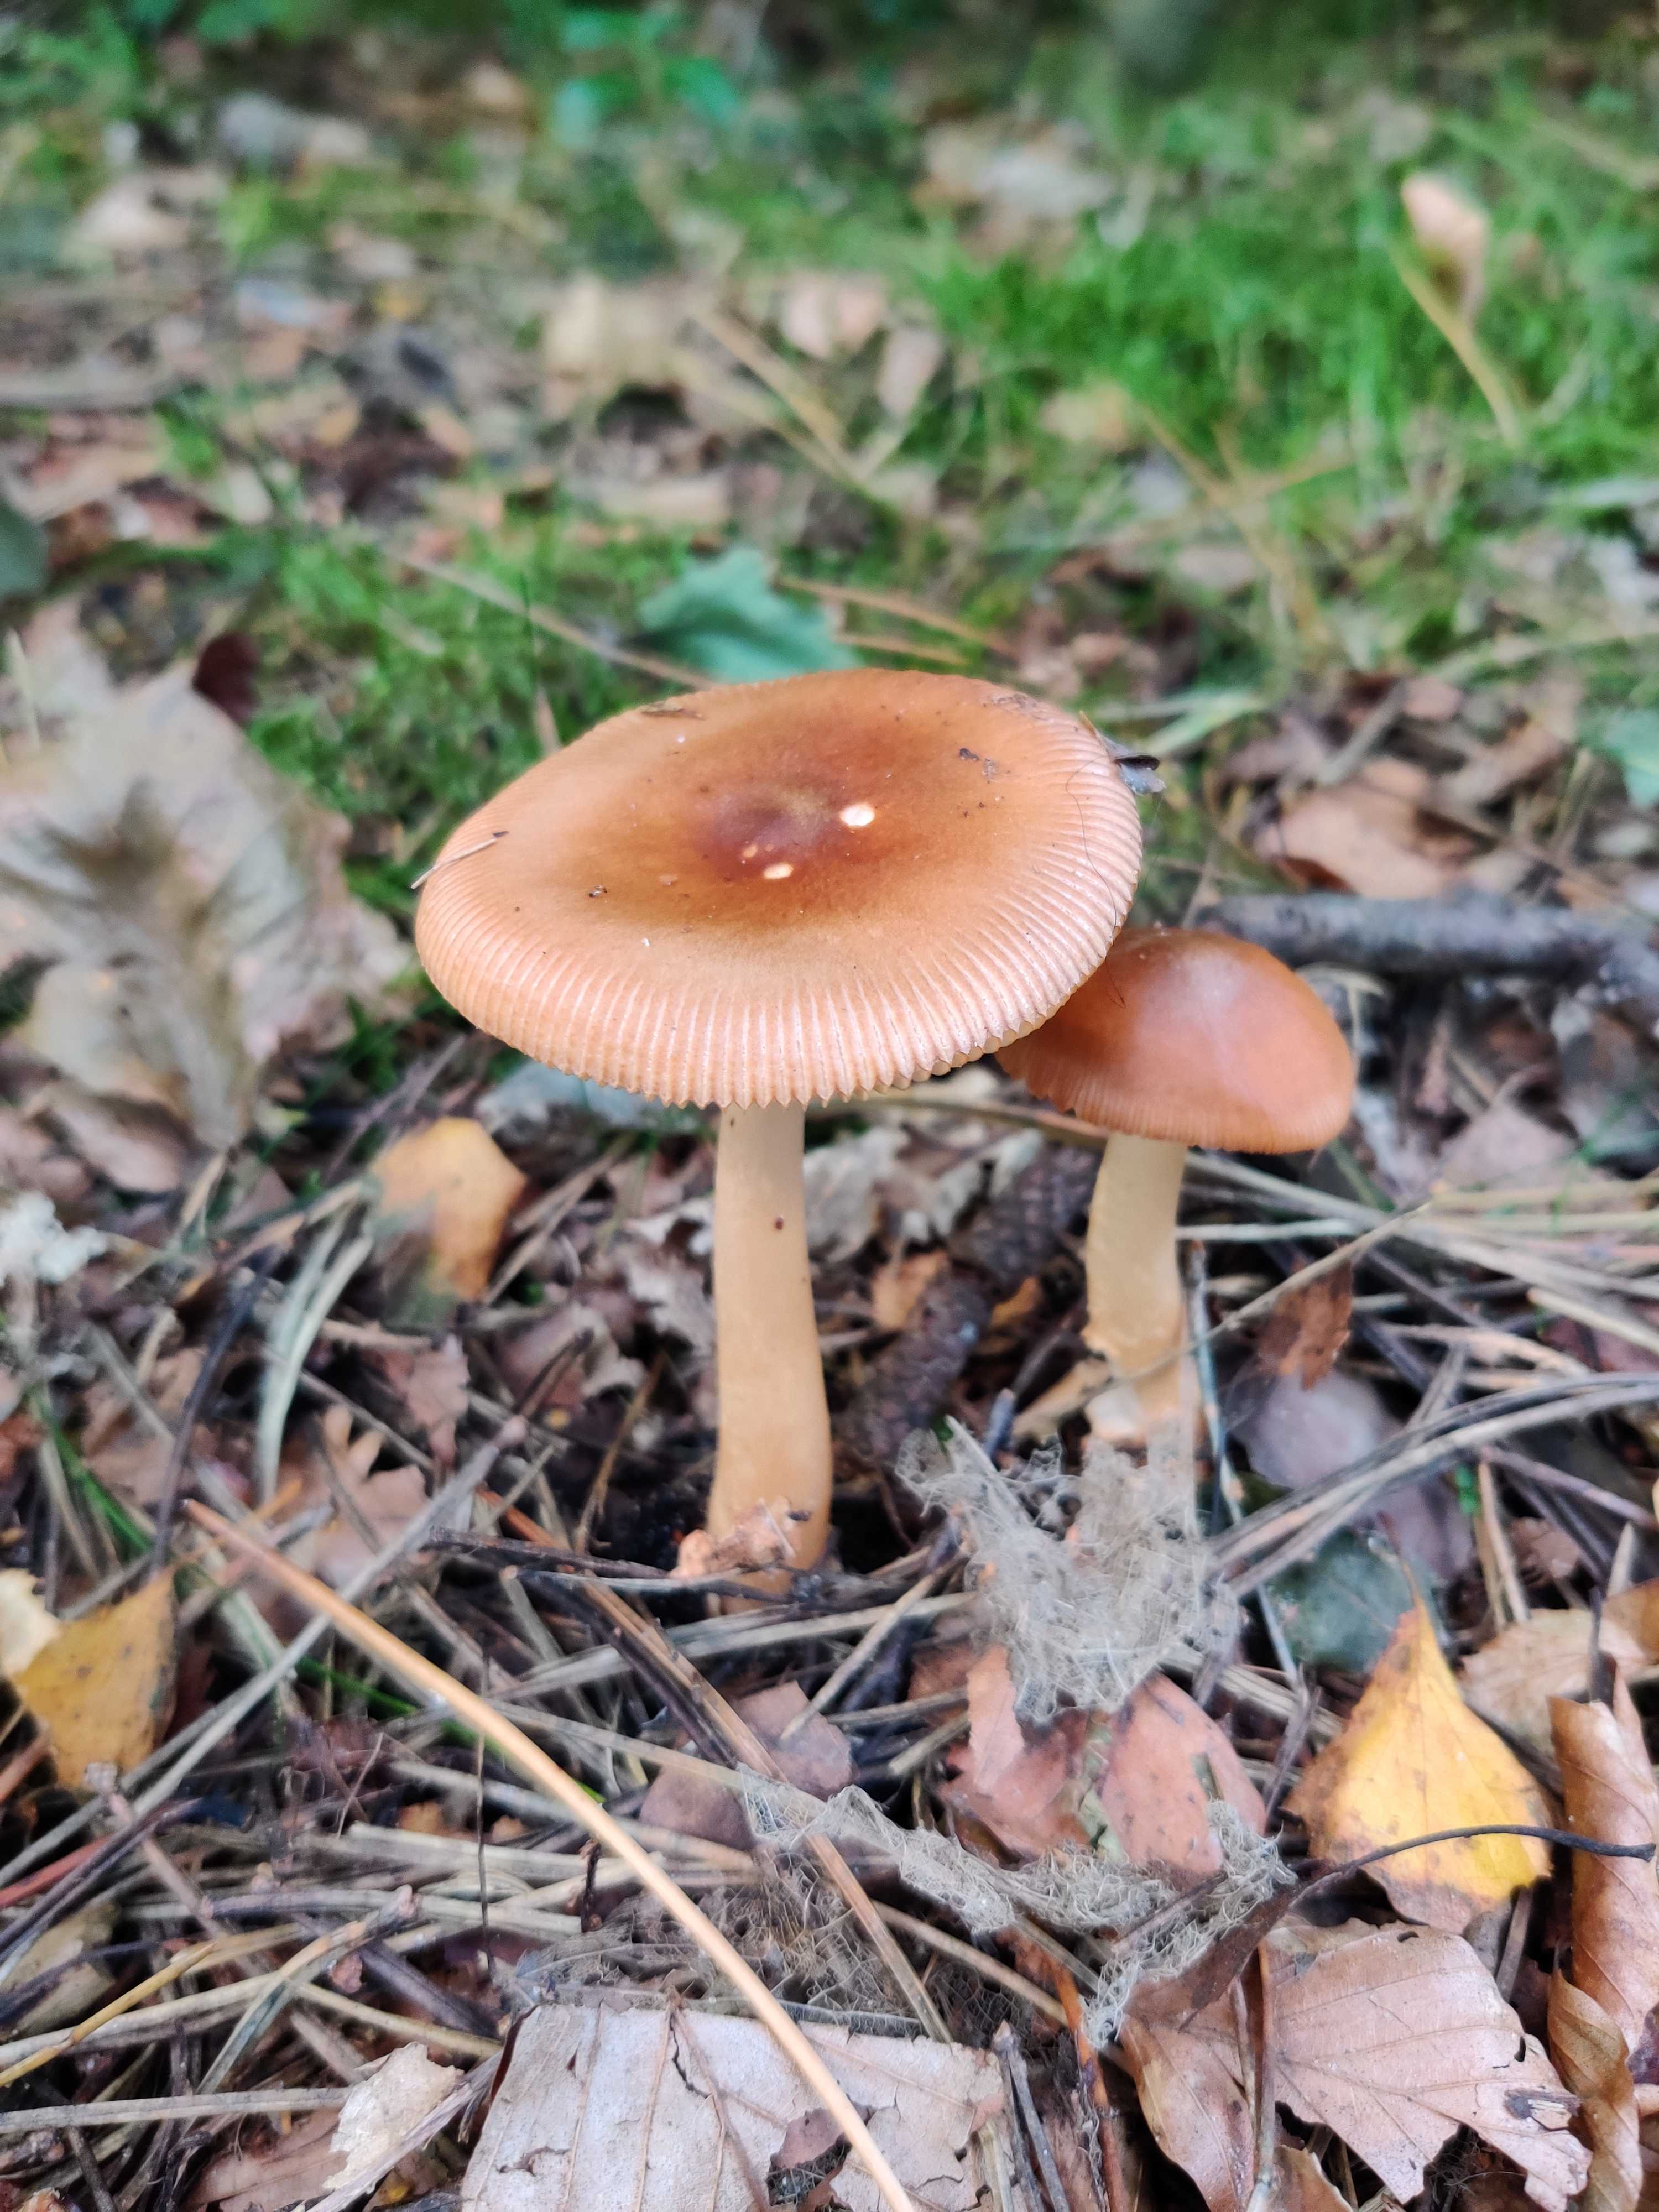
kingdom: Fungi
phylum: Basidiomycota
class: Agaricomycetes
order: Agaricales
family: Amanitaceae
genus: Amanita
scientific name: Amanita fulva
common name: brun kam-fluesvamp
